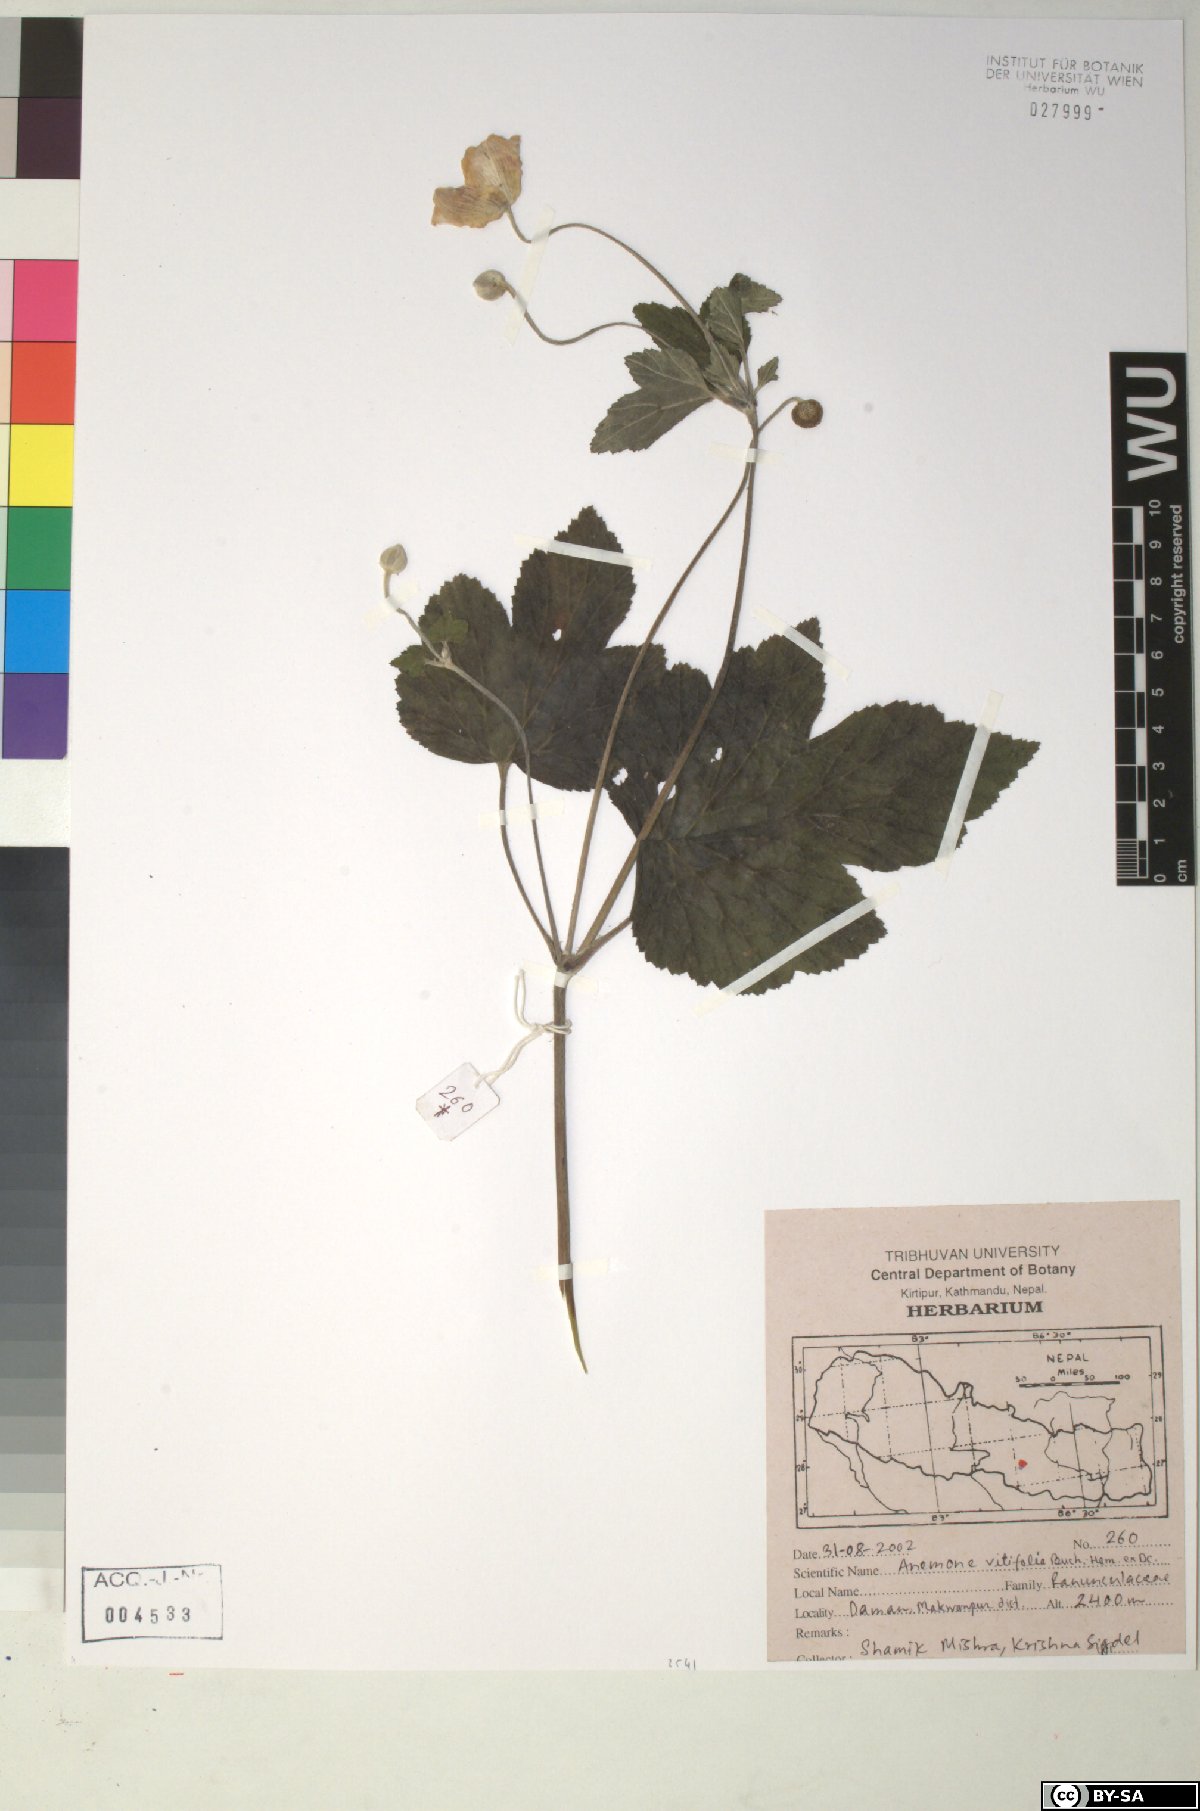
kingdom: Plantae
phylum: Tracheophyta
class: Magnoliopsida
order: Ranunculales
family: Ranunculaceae
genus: Eriocapitella
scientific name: Eriocapitella vitifolia
